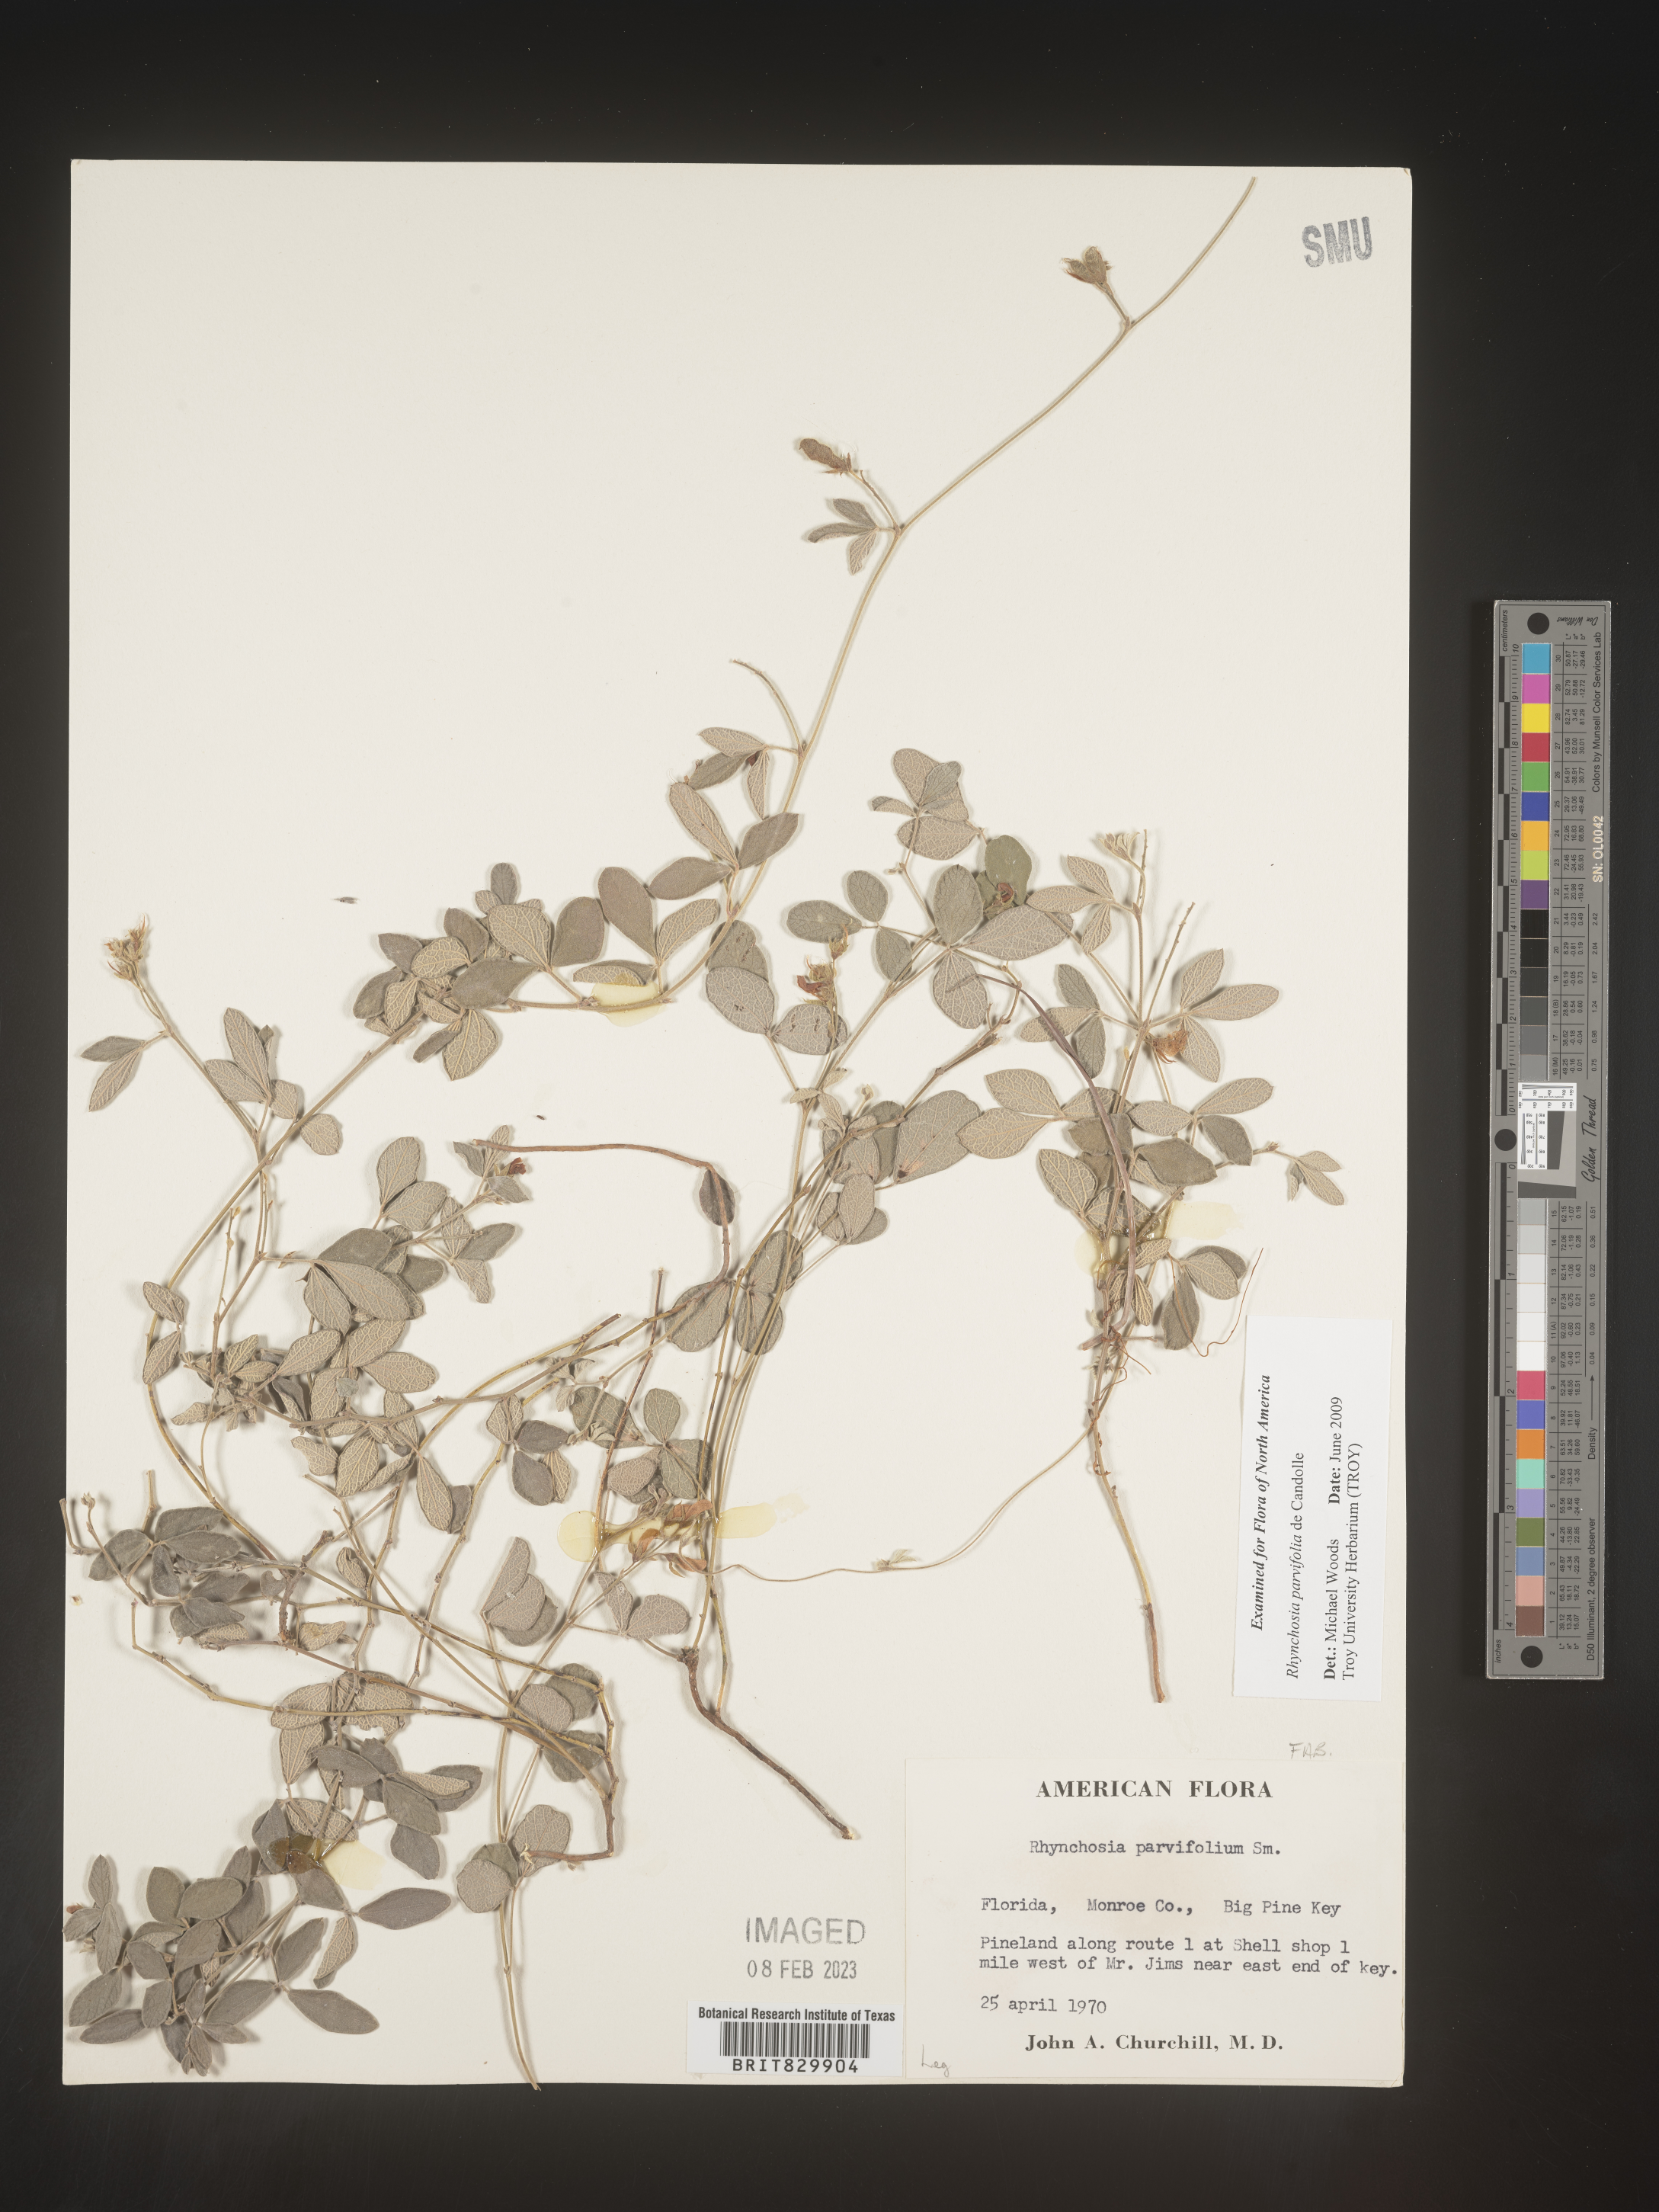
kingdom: Plantae
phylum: Tracheophyta
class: Magnoliopsida
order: Fabales
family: Fabaceae
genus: Rhynchosia
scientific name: Rhynchosia
